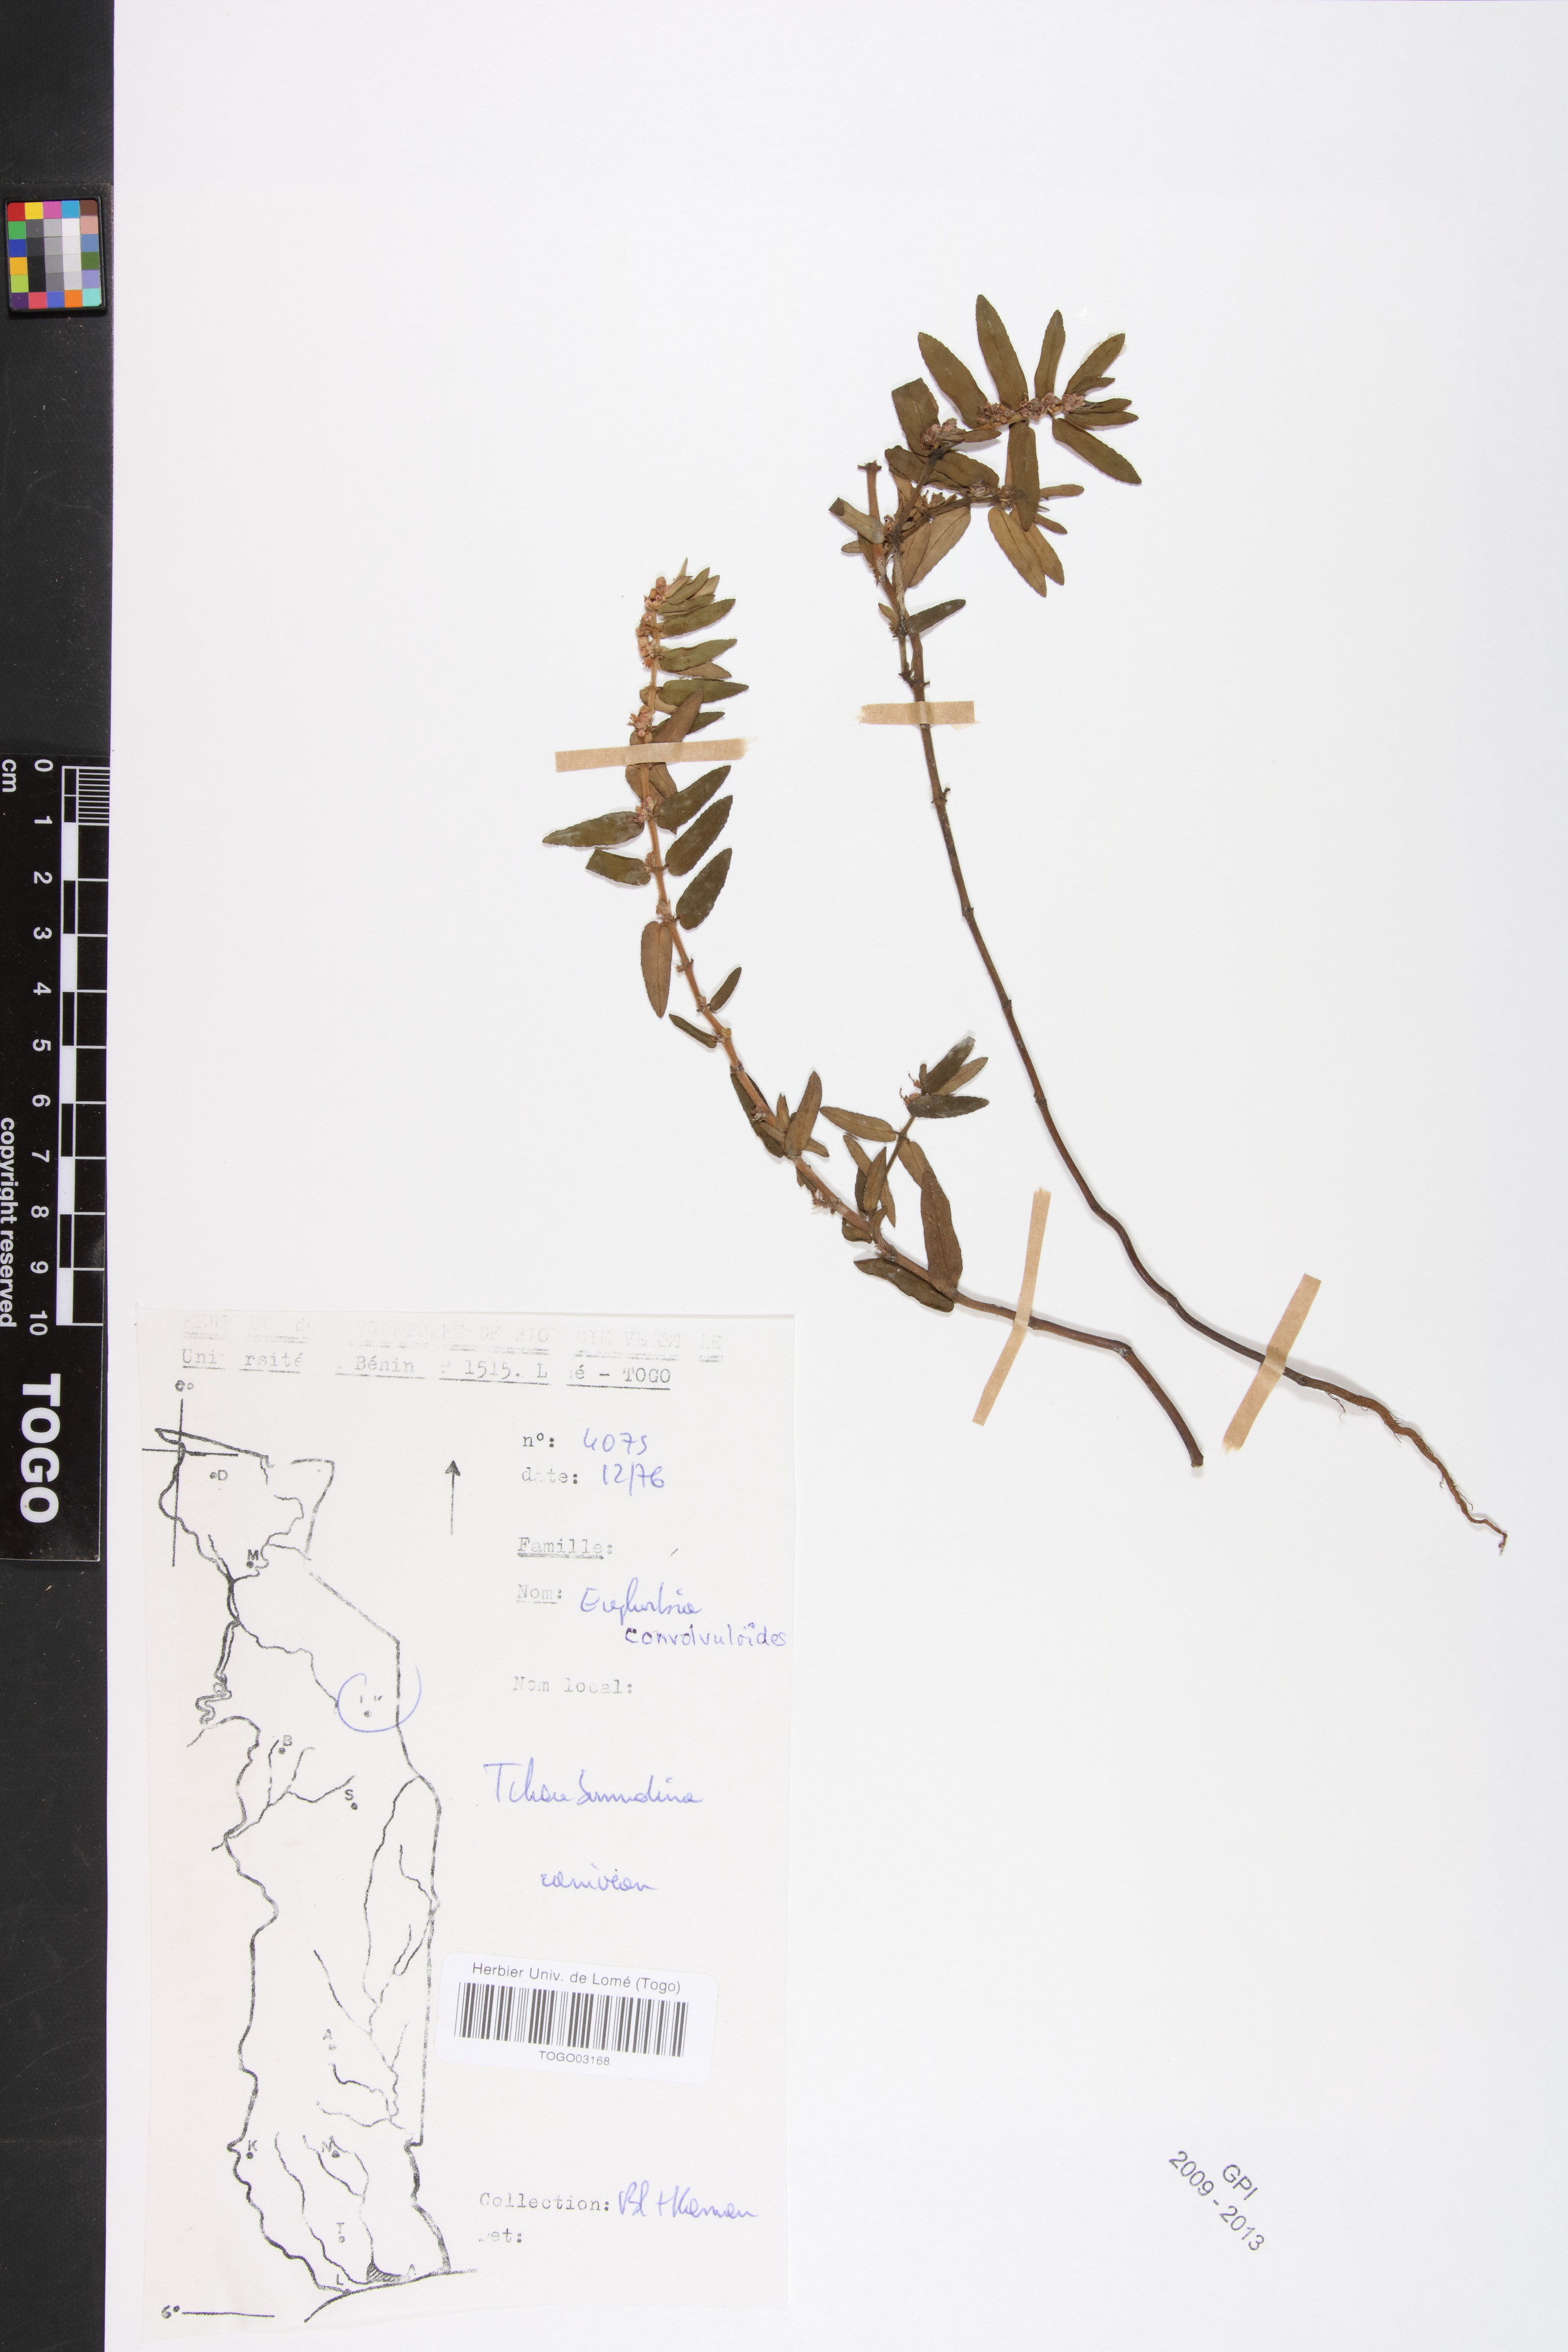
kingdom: Plantae
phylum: Tracheophyta
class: Magnoliopsida
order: Malpighiales
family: Euphorbiaceae
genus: Euphorbia
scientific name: Euphorbia convolvuloides
